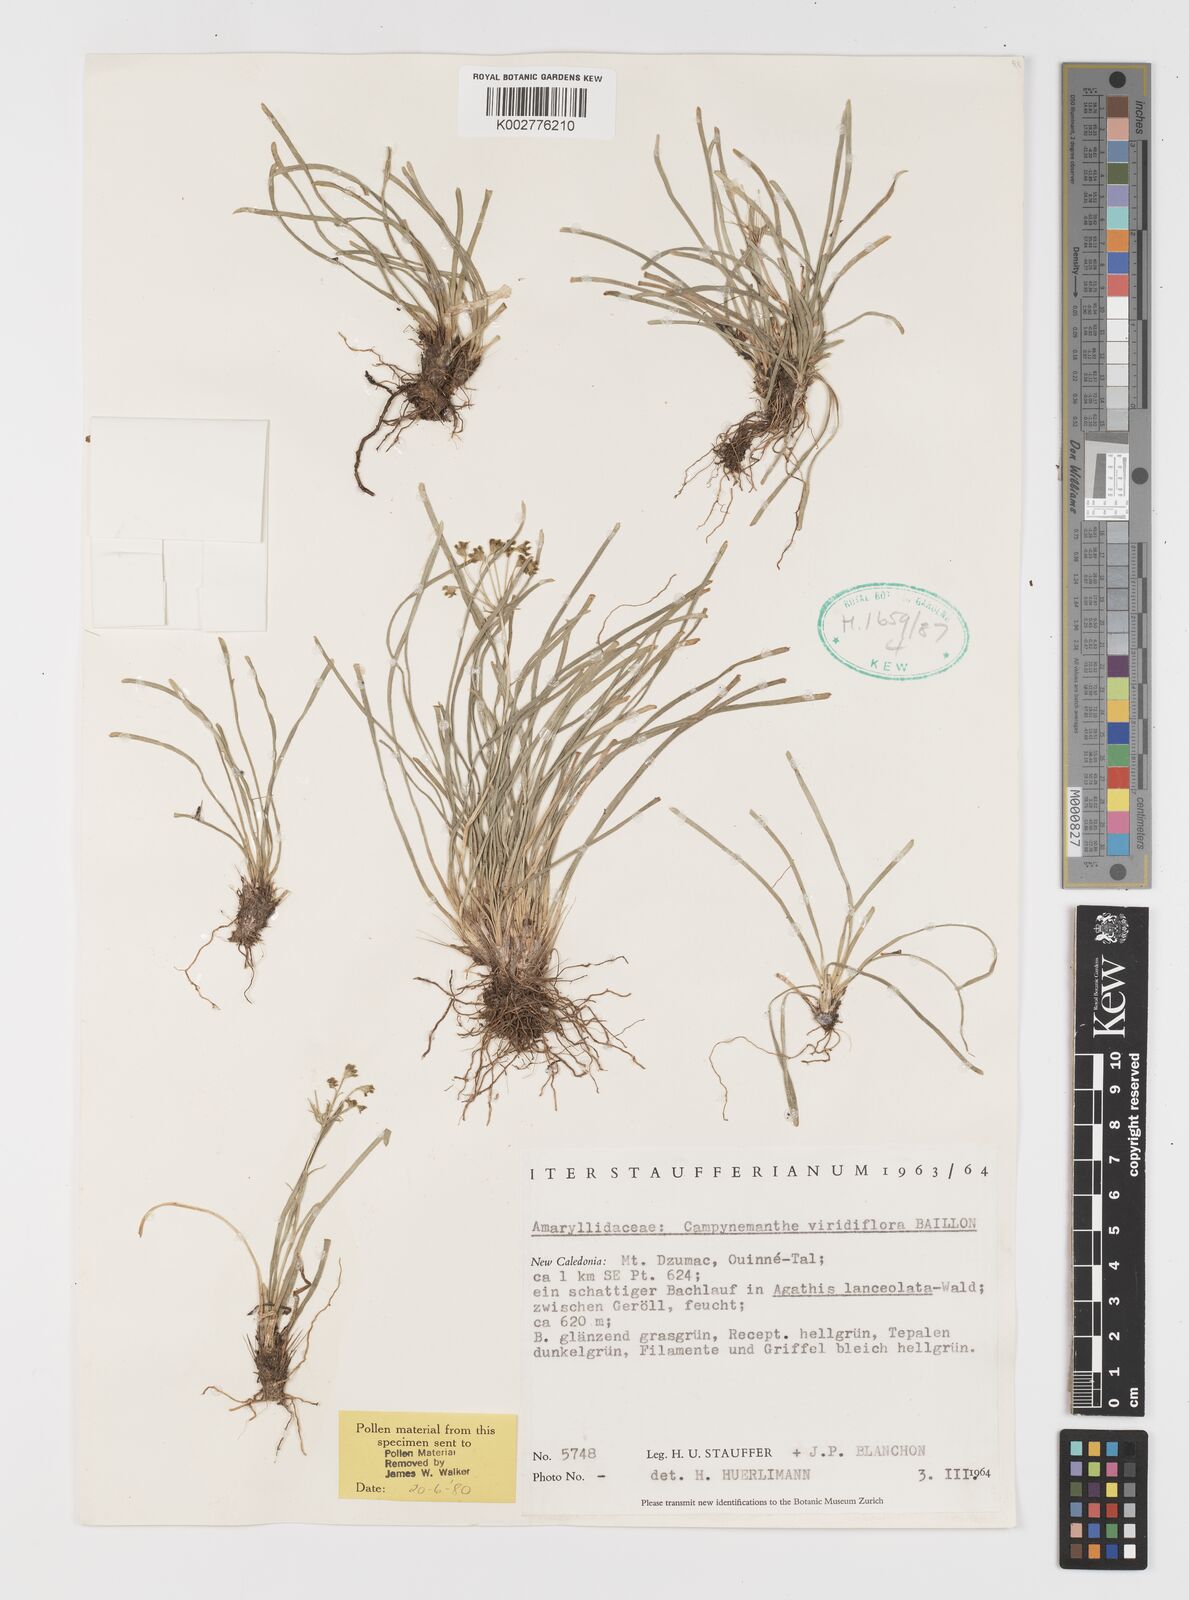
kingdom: Plantae
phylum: Tracheophyta
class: Liliopsida
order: Liliales
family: Campynemataceae
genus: Campynemanthe
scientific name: Campynemanthe viridiflora
